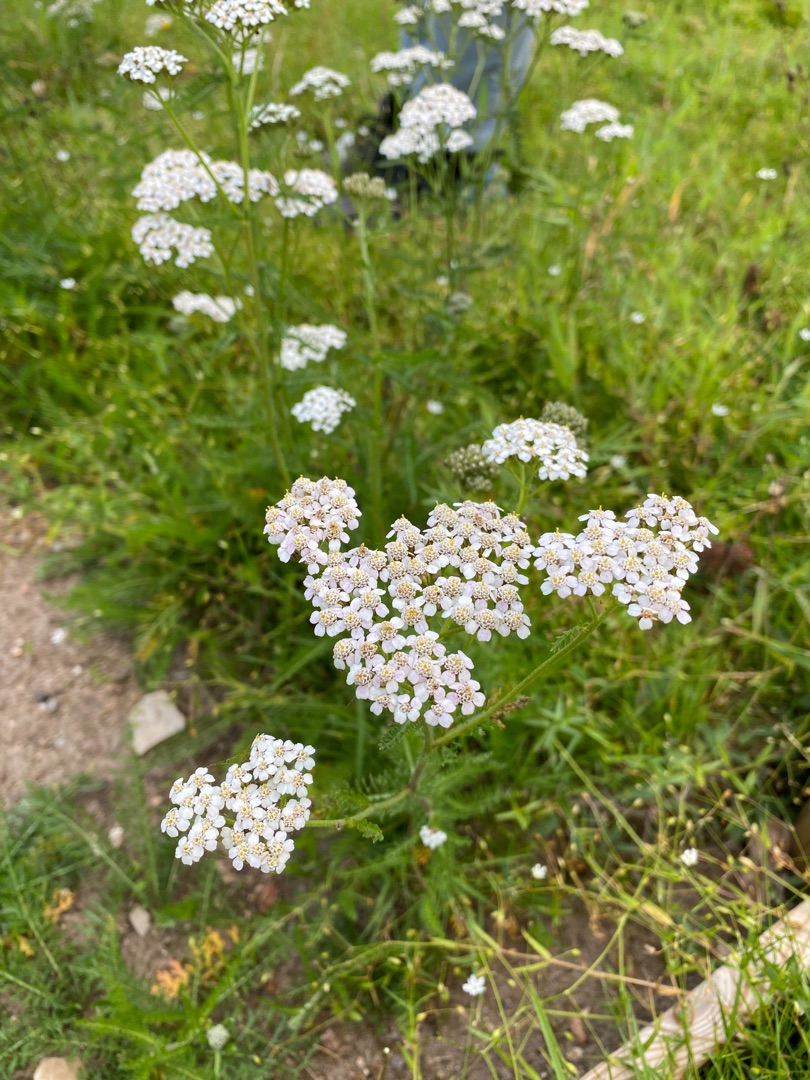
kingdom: Plantae
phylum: Tracheophyta
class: Magnoliopsida
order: Asterales
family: Asteraceae
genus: Achillea
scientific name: Achillea millefolium
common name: Almindelig røllike
